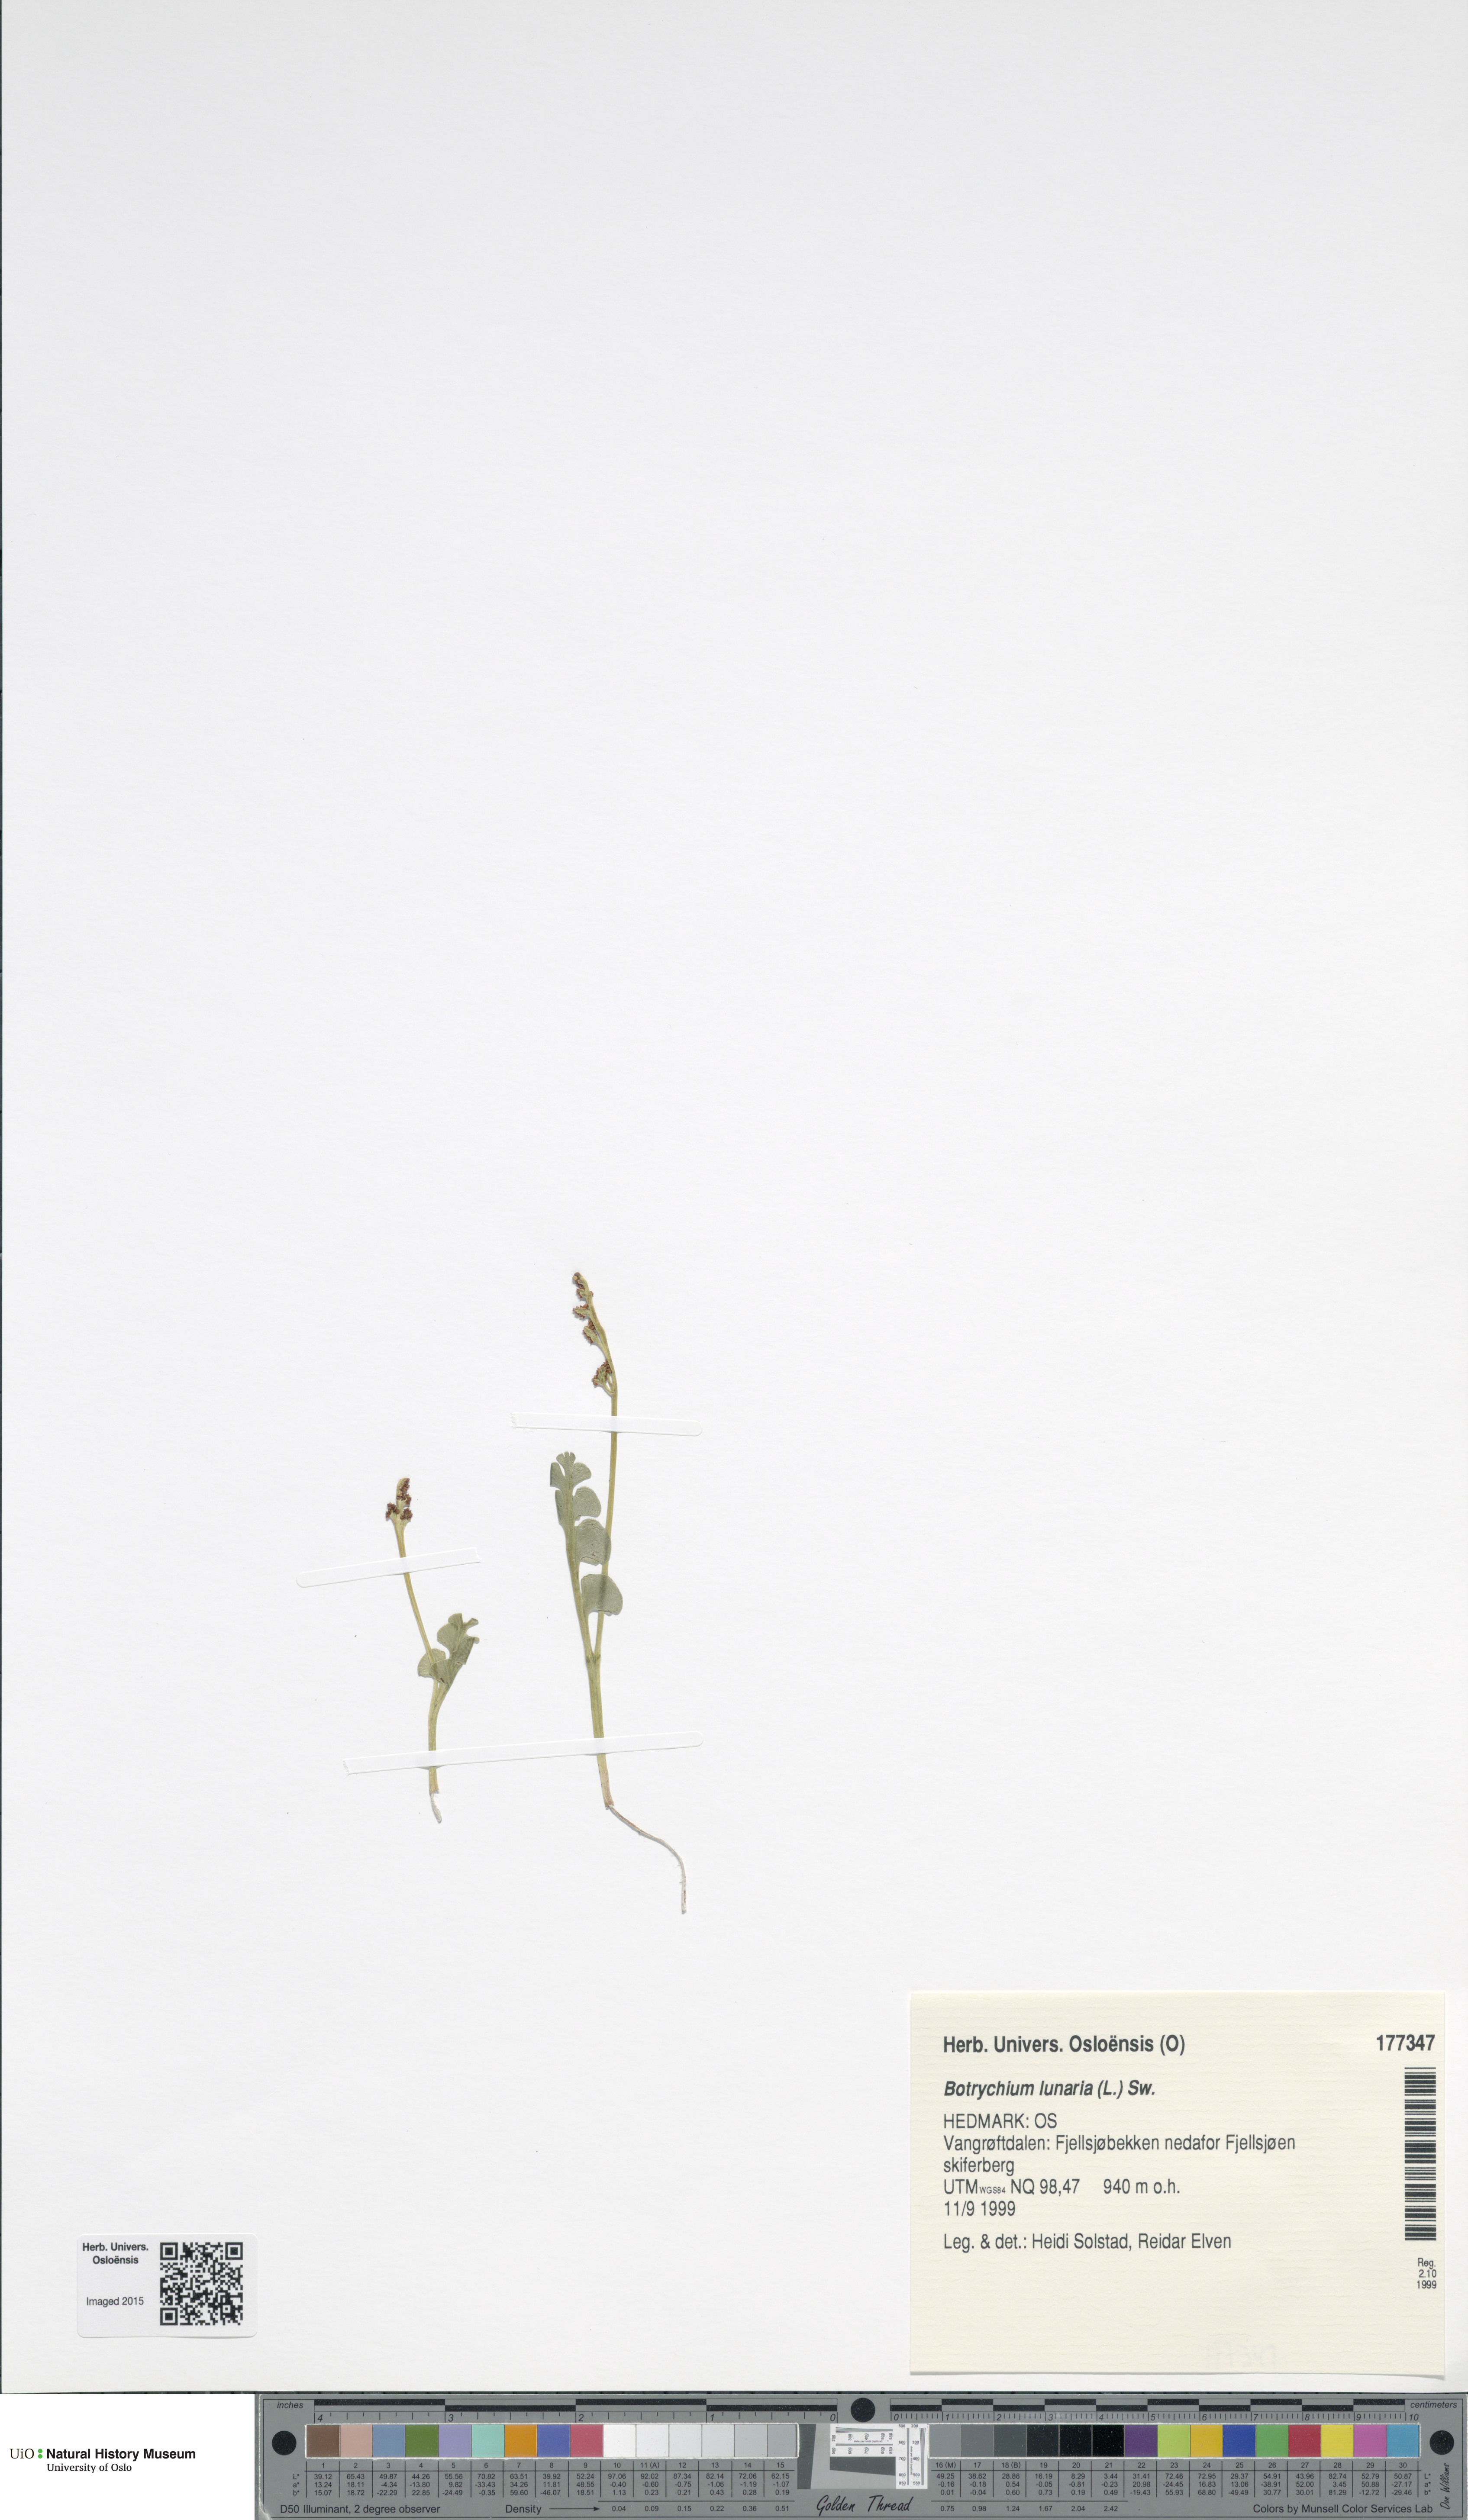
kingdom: Plantae
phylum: Tracheophyta
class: Polypodiopsida
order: Ophioglossales
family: Ophioglossaceae
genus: Botrychium
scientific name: Botrychium lunaria
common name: Moonwort
